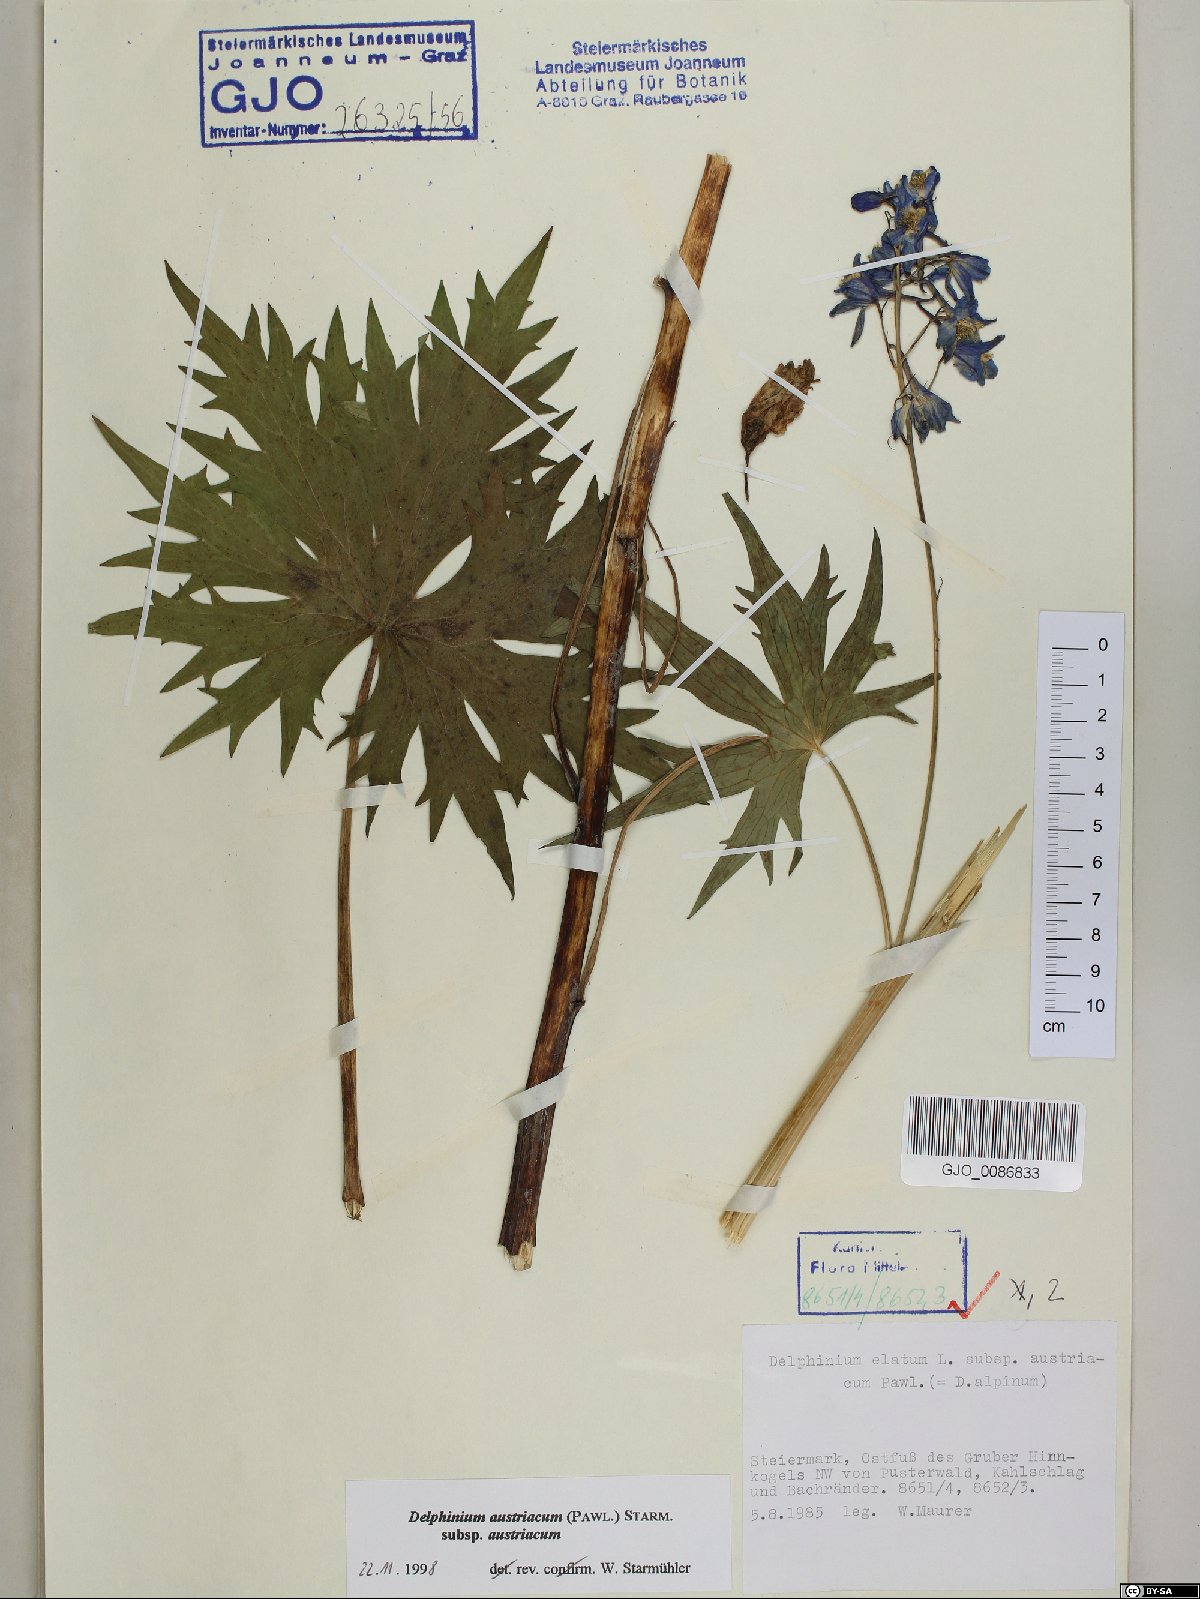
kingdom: Plantae
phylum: Tracheophyta
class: Magnoliopsida
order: Ranunculales
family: Ranunculaceae
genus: Delphinium
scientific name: Delphinium austriacum
